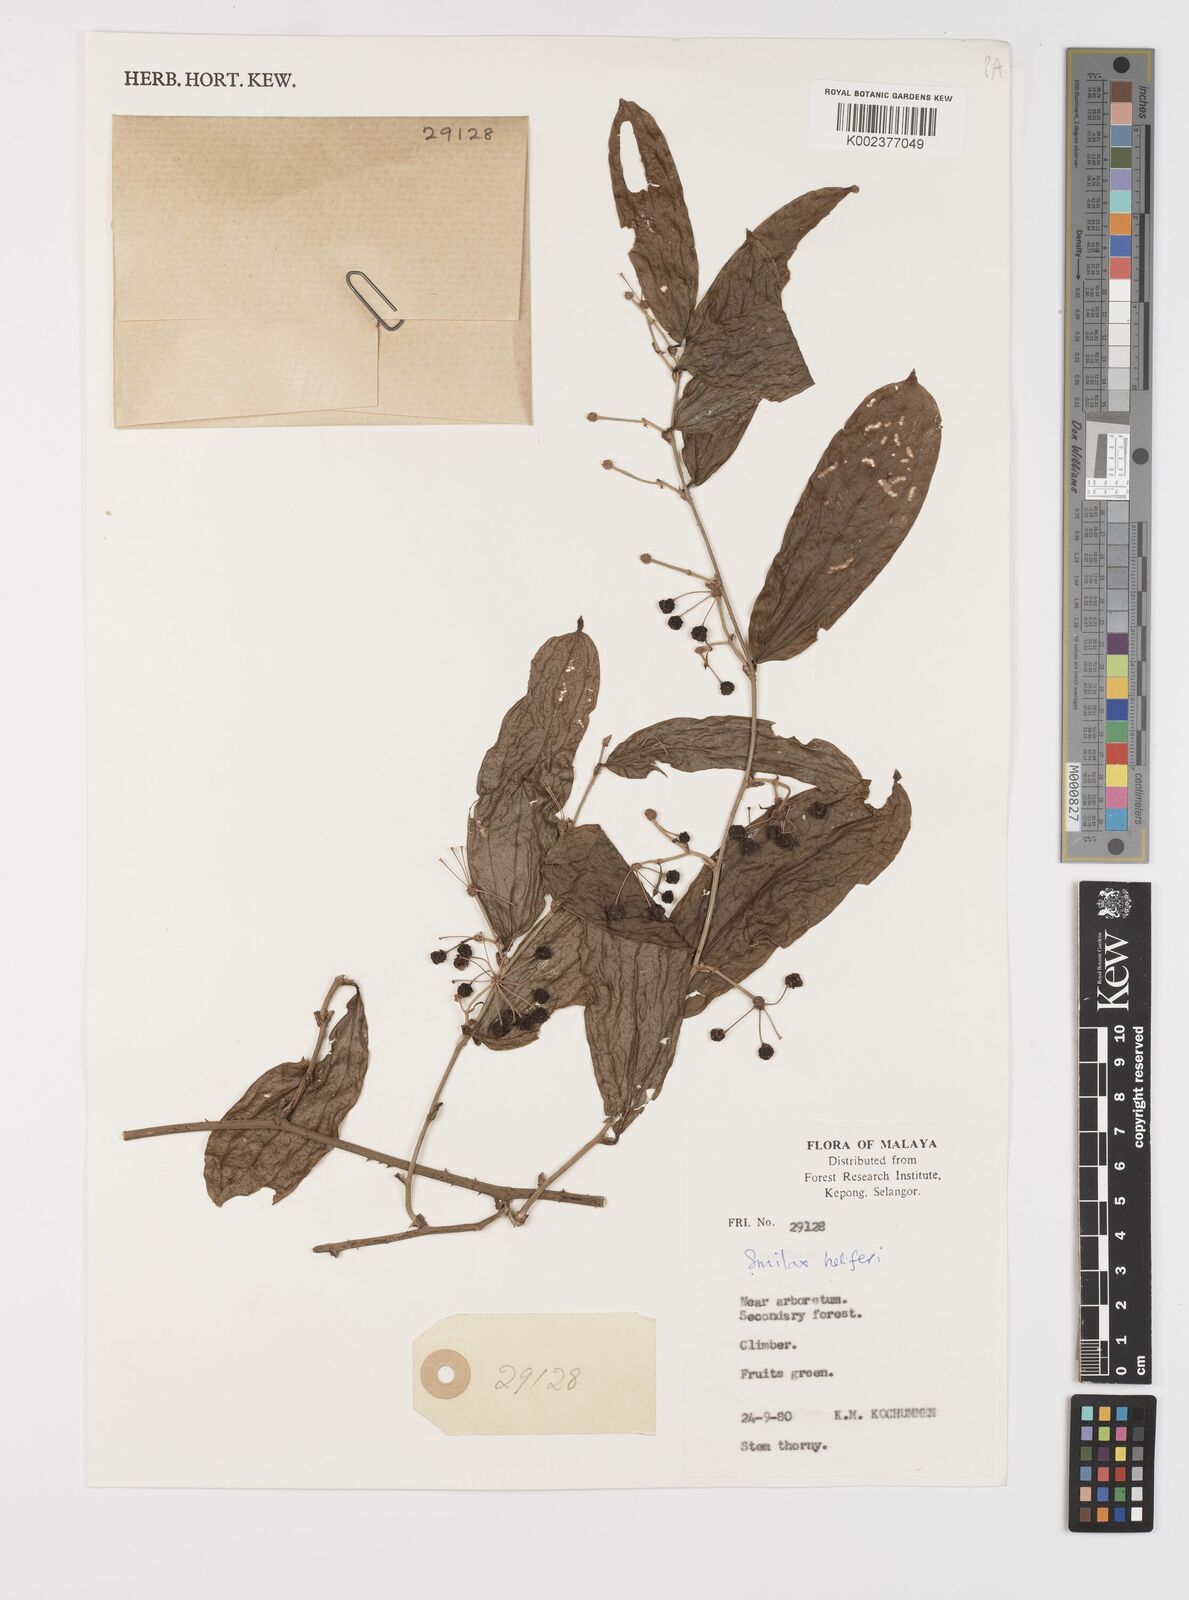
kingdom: Plantae
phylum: Tracheophyta
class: Liliopsida
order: Liliales
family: Smilacaceae
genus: Smilax
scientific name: Smilax luzonensis
